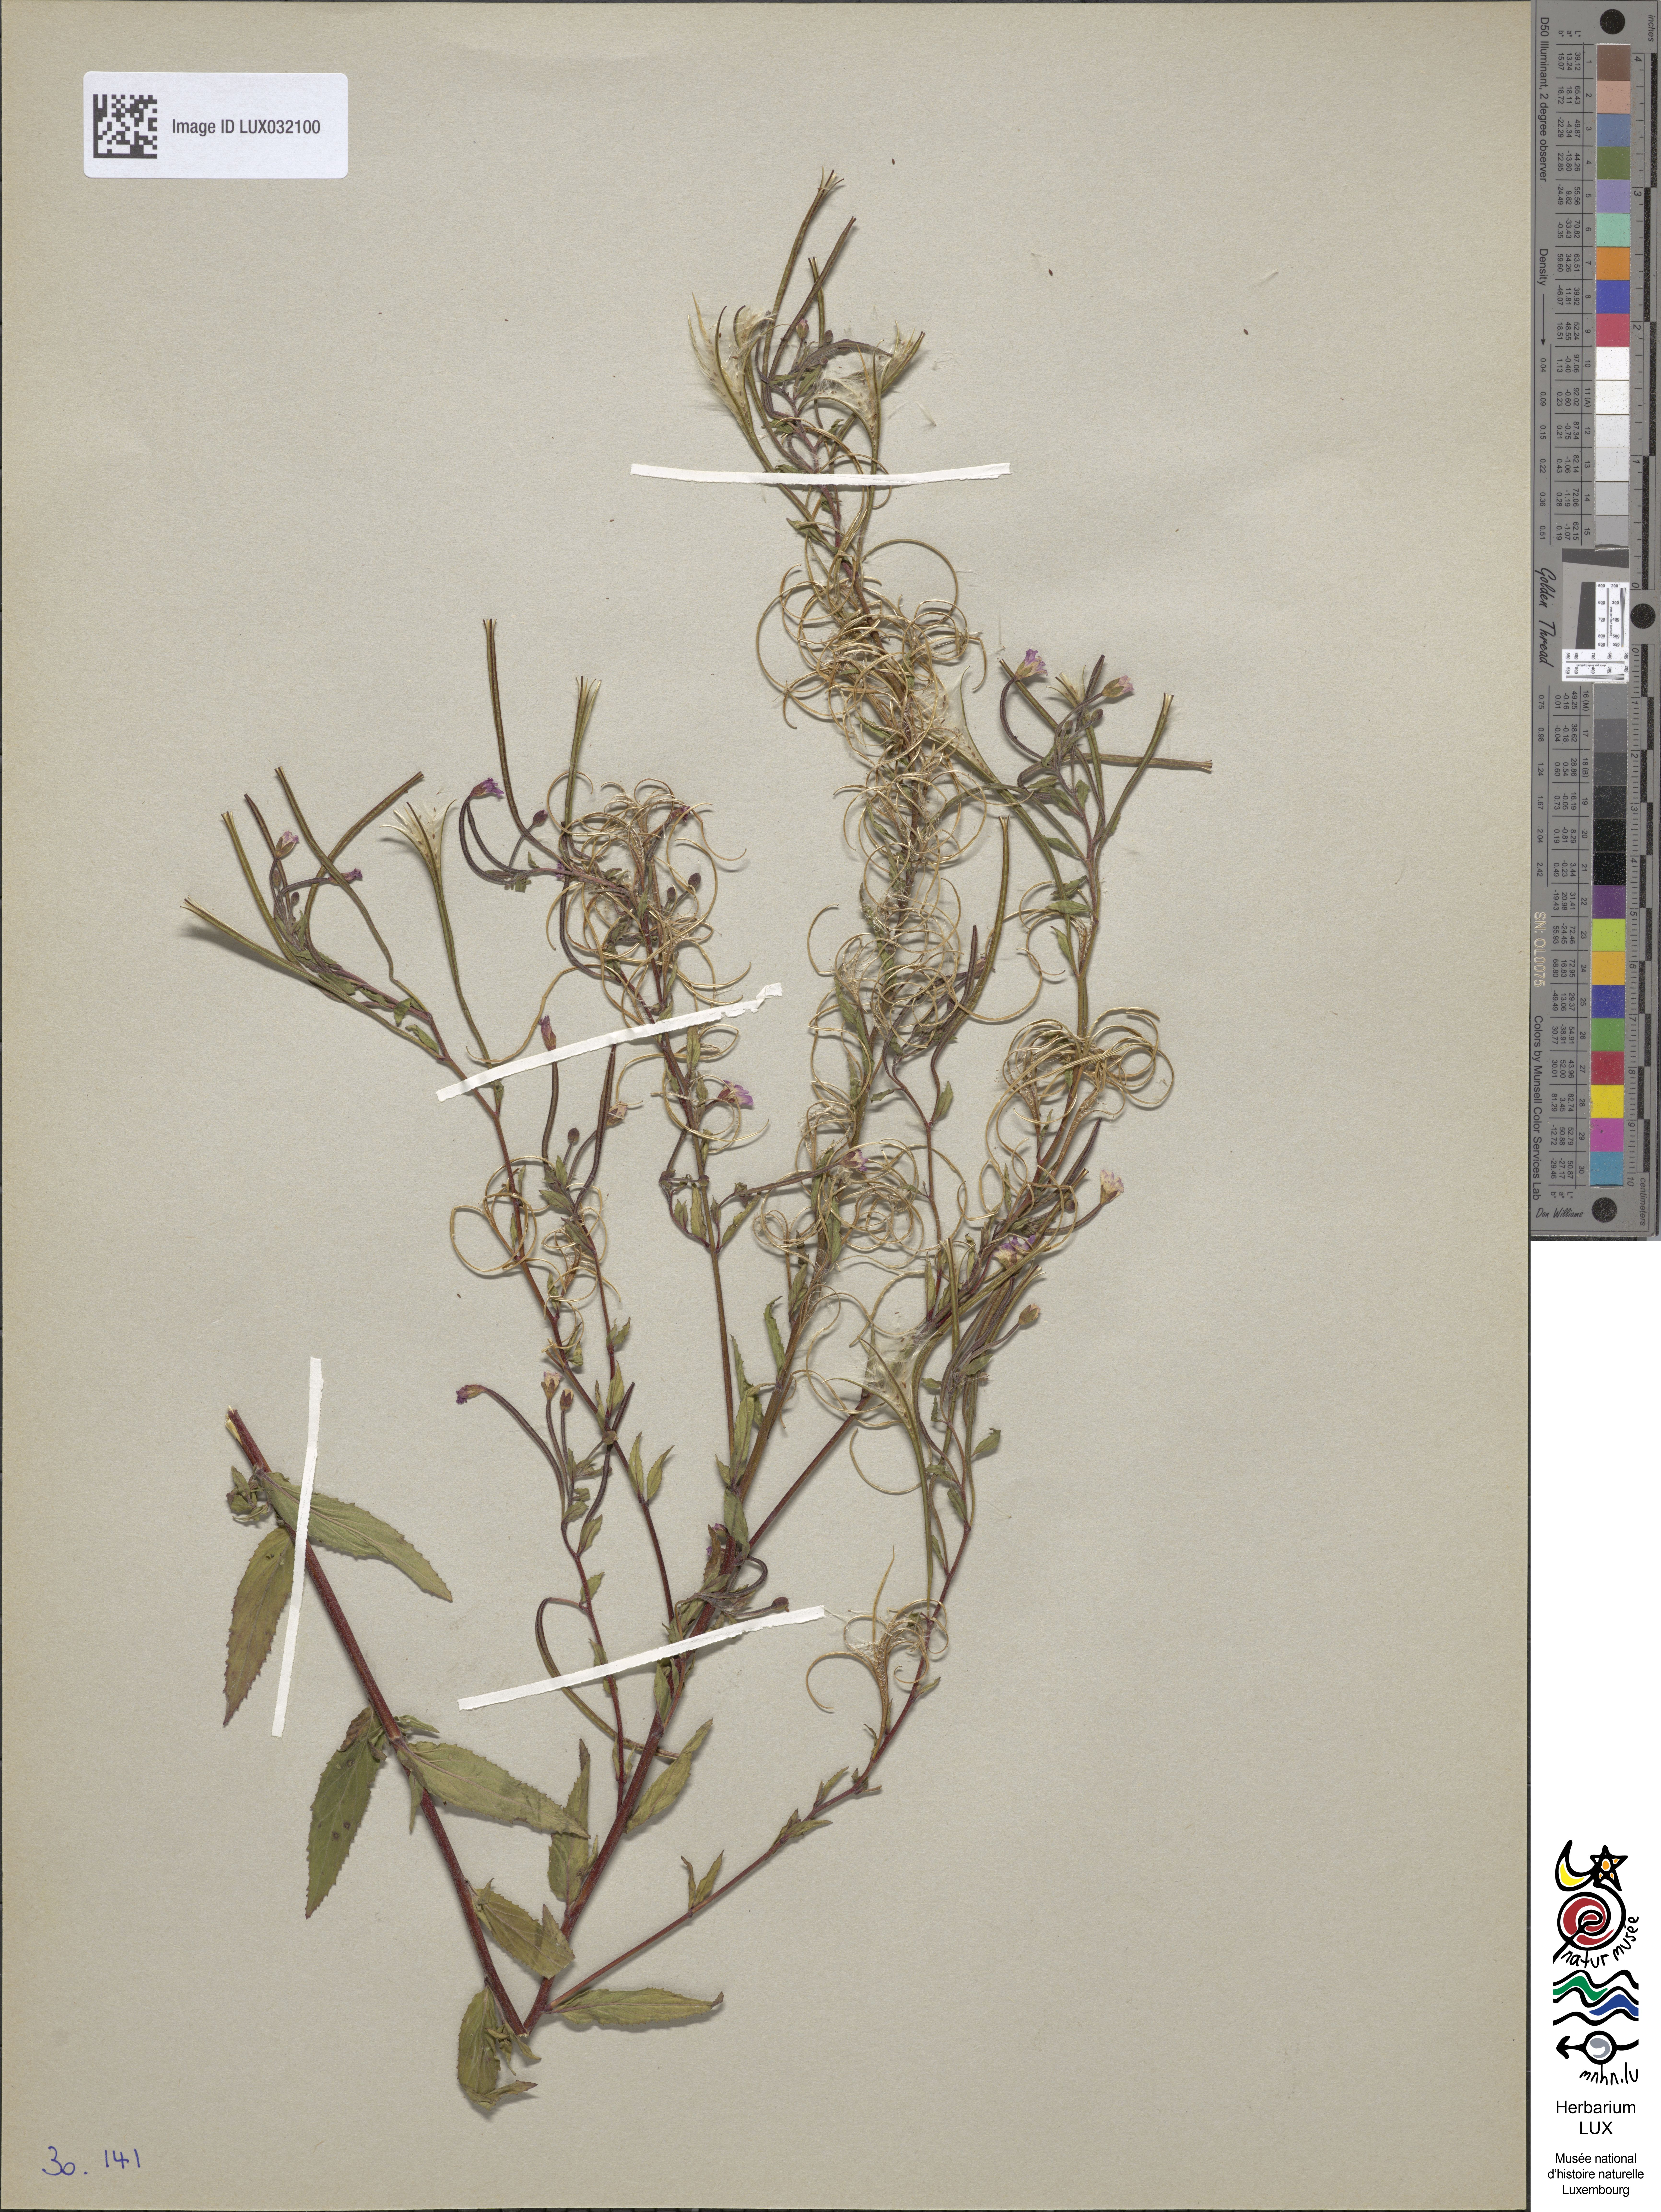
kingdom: Plantae
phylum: Tracheophyta
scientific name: Tracheophyta
